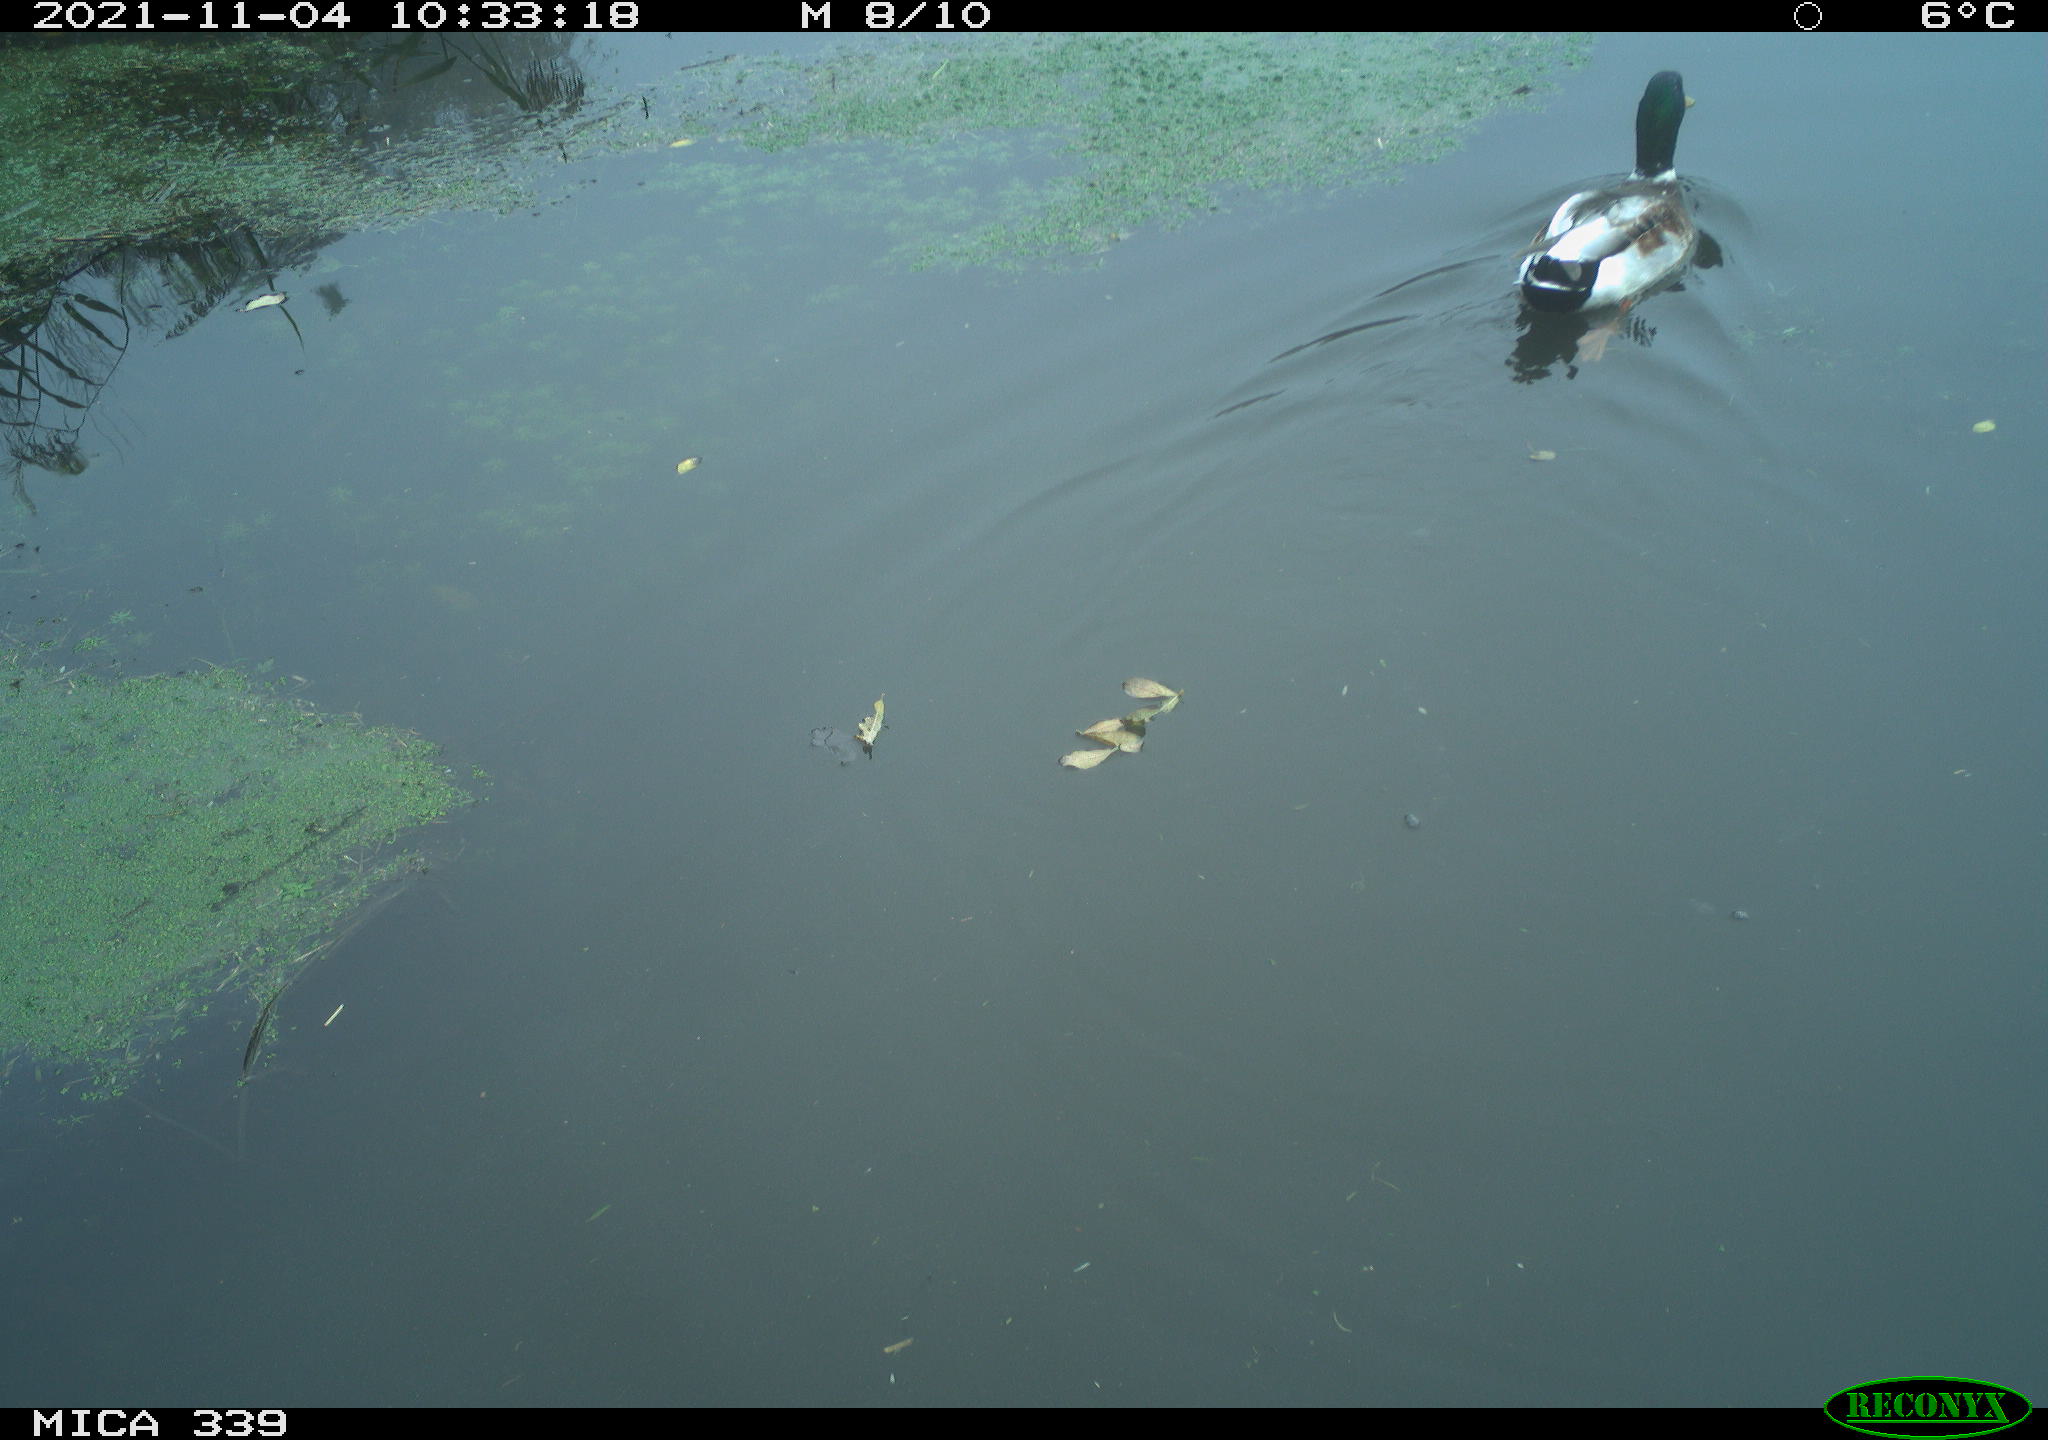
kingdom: Animalia
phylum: Chordata
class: Aves
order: Anseriformes
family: Anatidae
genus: Anas
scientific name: Anas platyrhynchos
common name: Mallard
